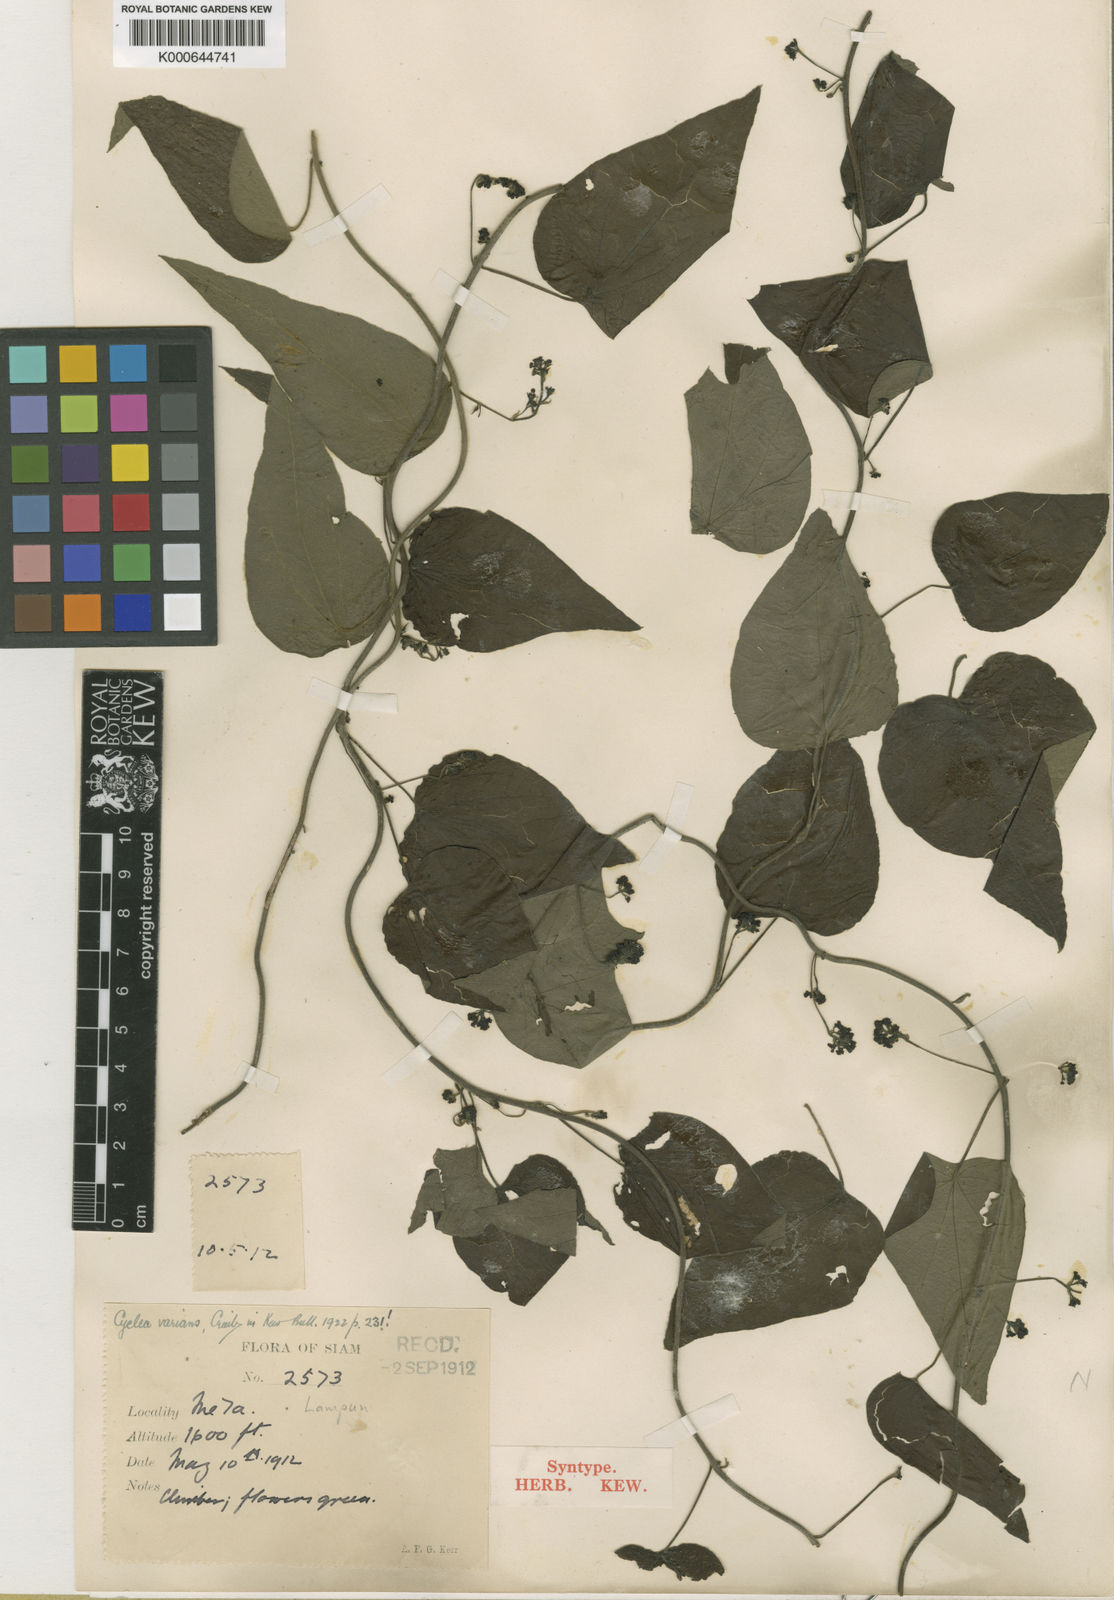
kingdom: Plantae
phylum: Tracheophyta
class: Magnoliopsida
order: Ranunculales
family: Menispermaceae
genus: Cyclea
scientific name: Cyclea varians
